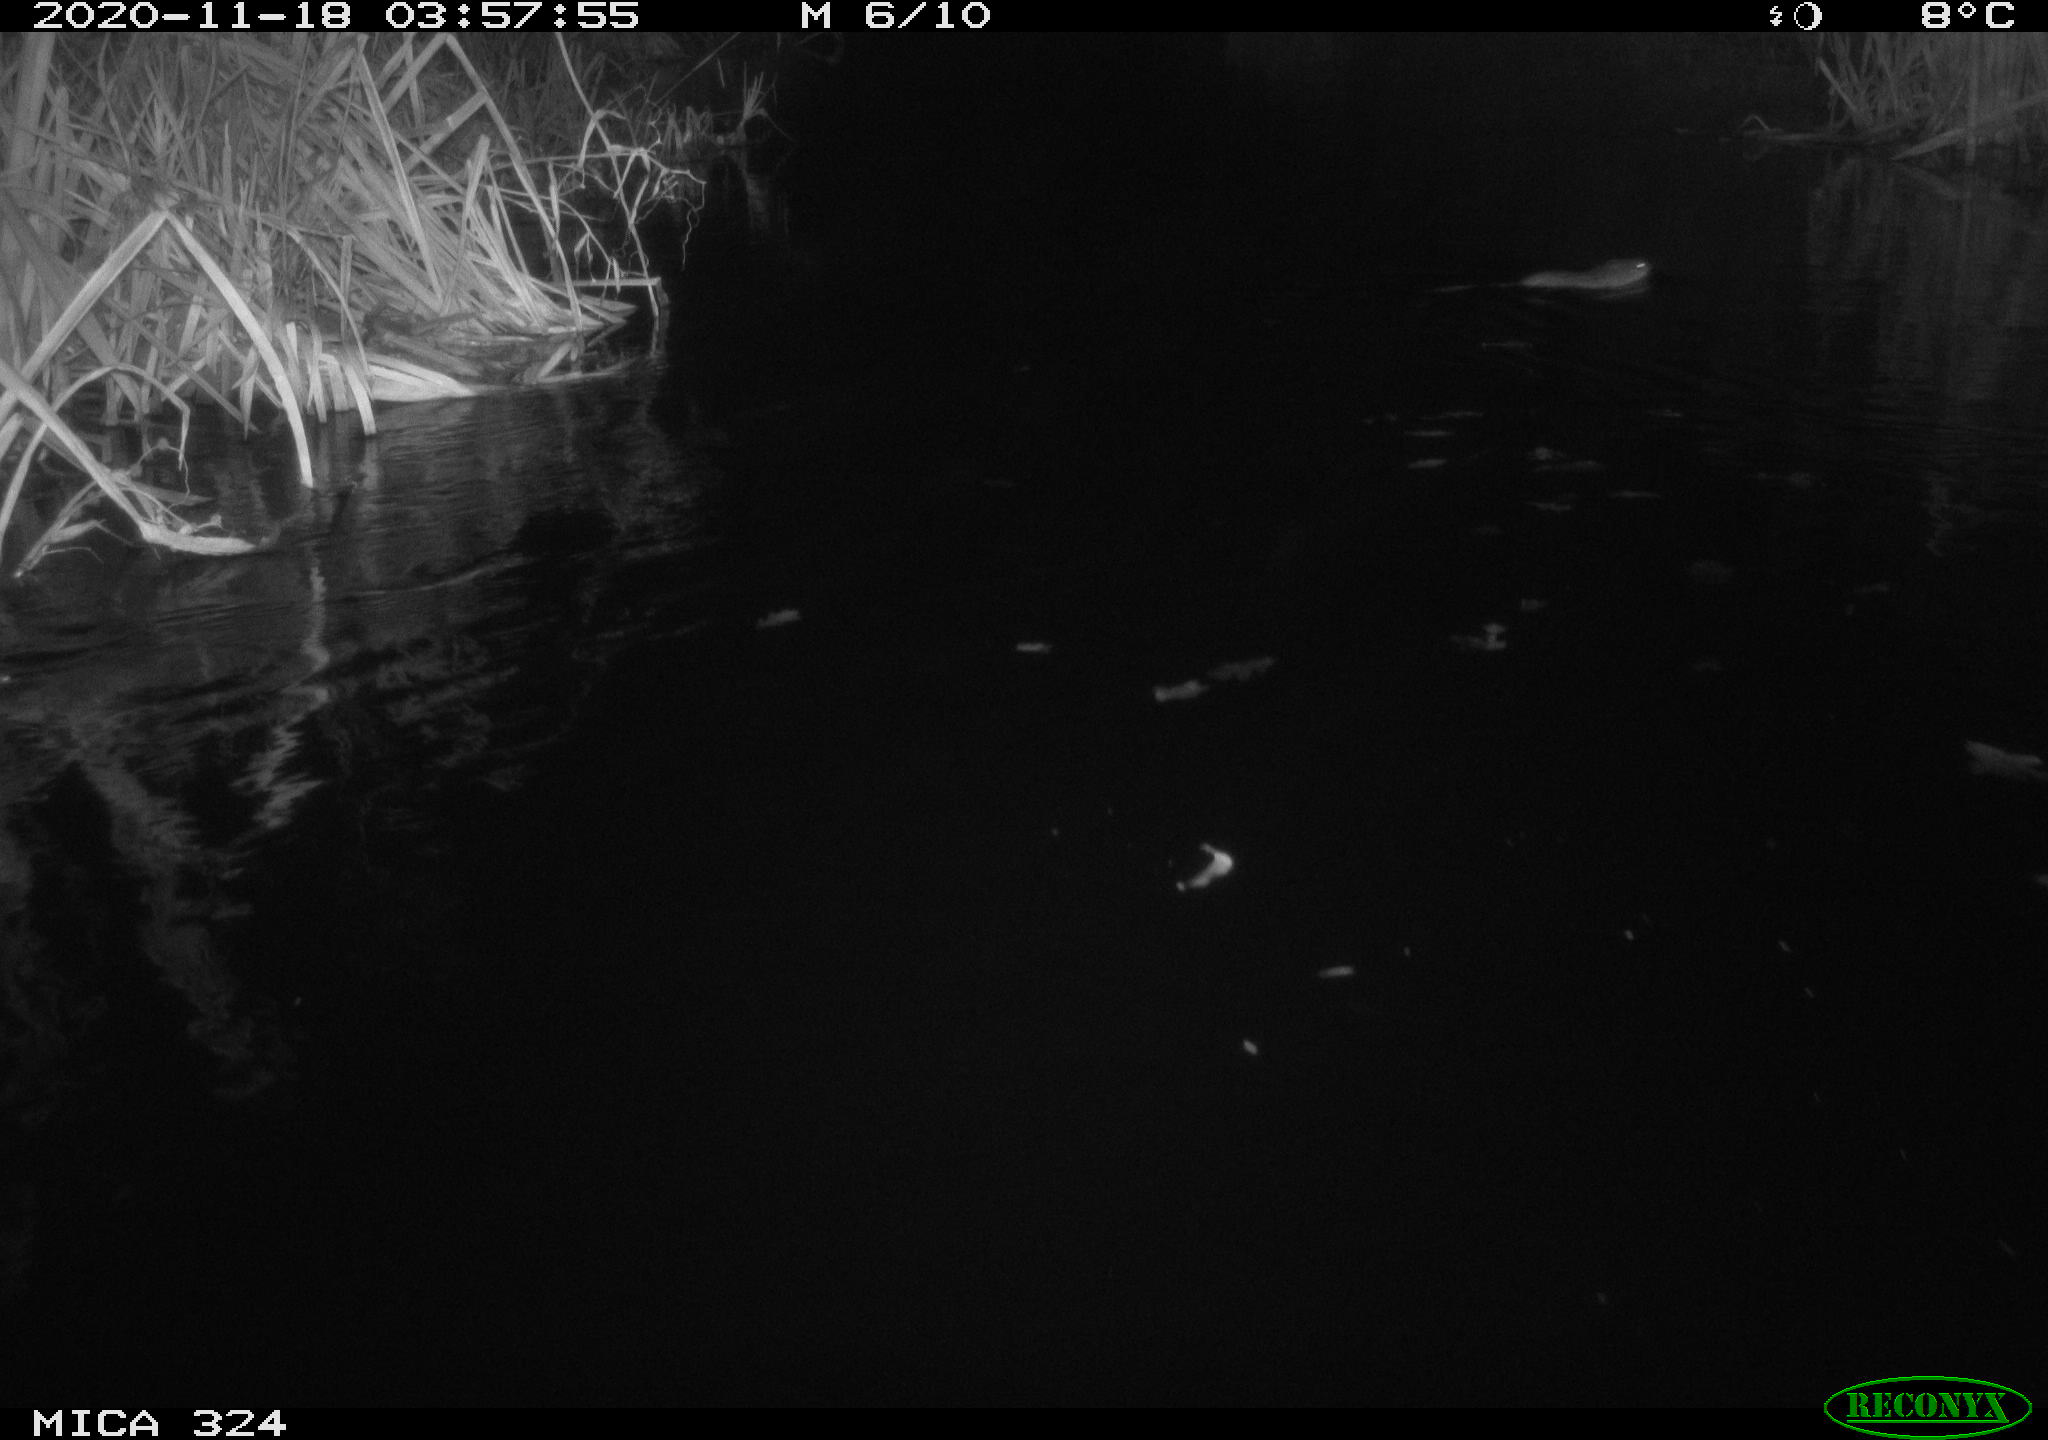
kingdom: Animalia
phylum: Chordata
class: Mammalia
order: Rodentia
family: Cricetidae
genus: Ondatra
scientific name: Ondatra zibethicus
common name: Muskrat
